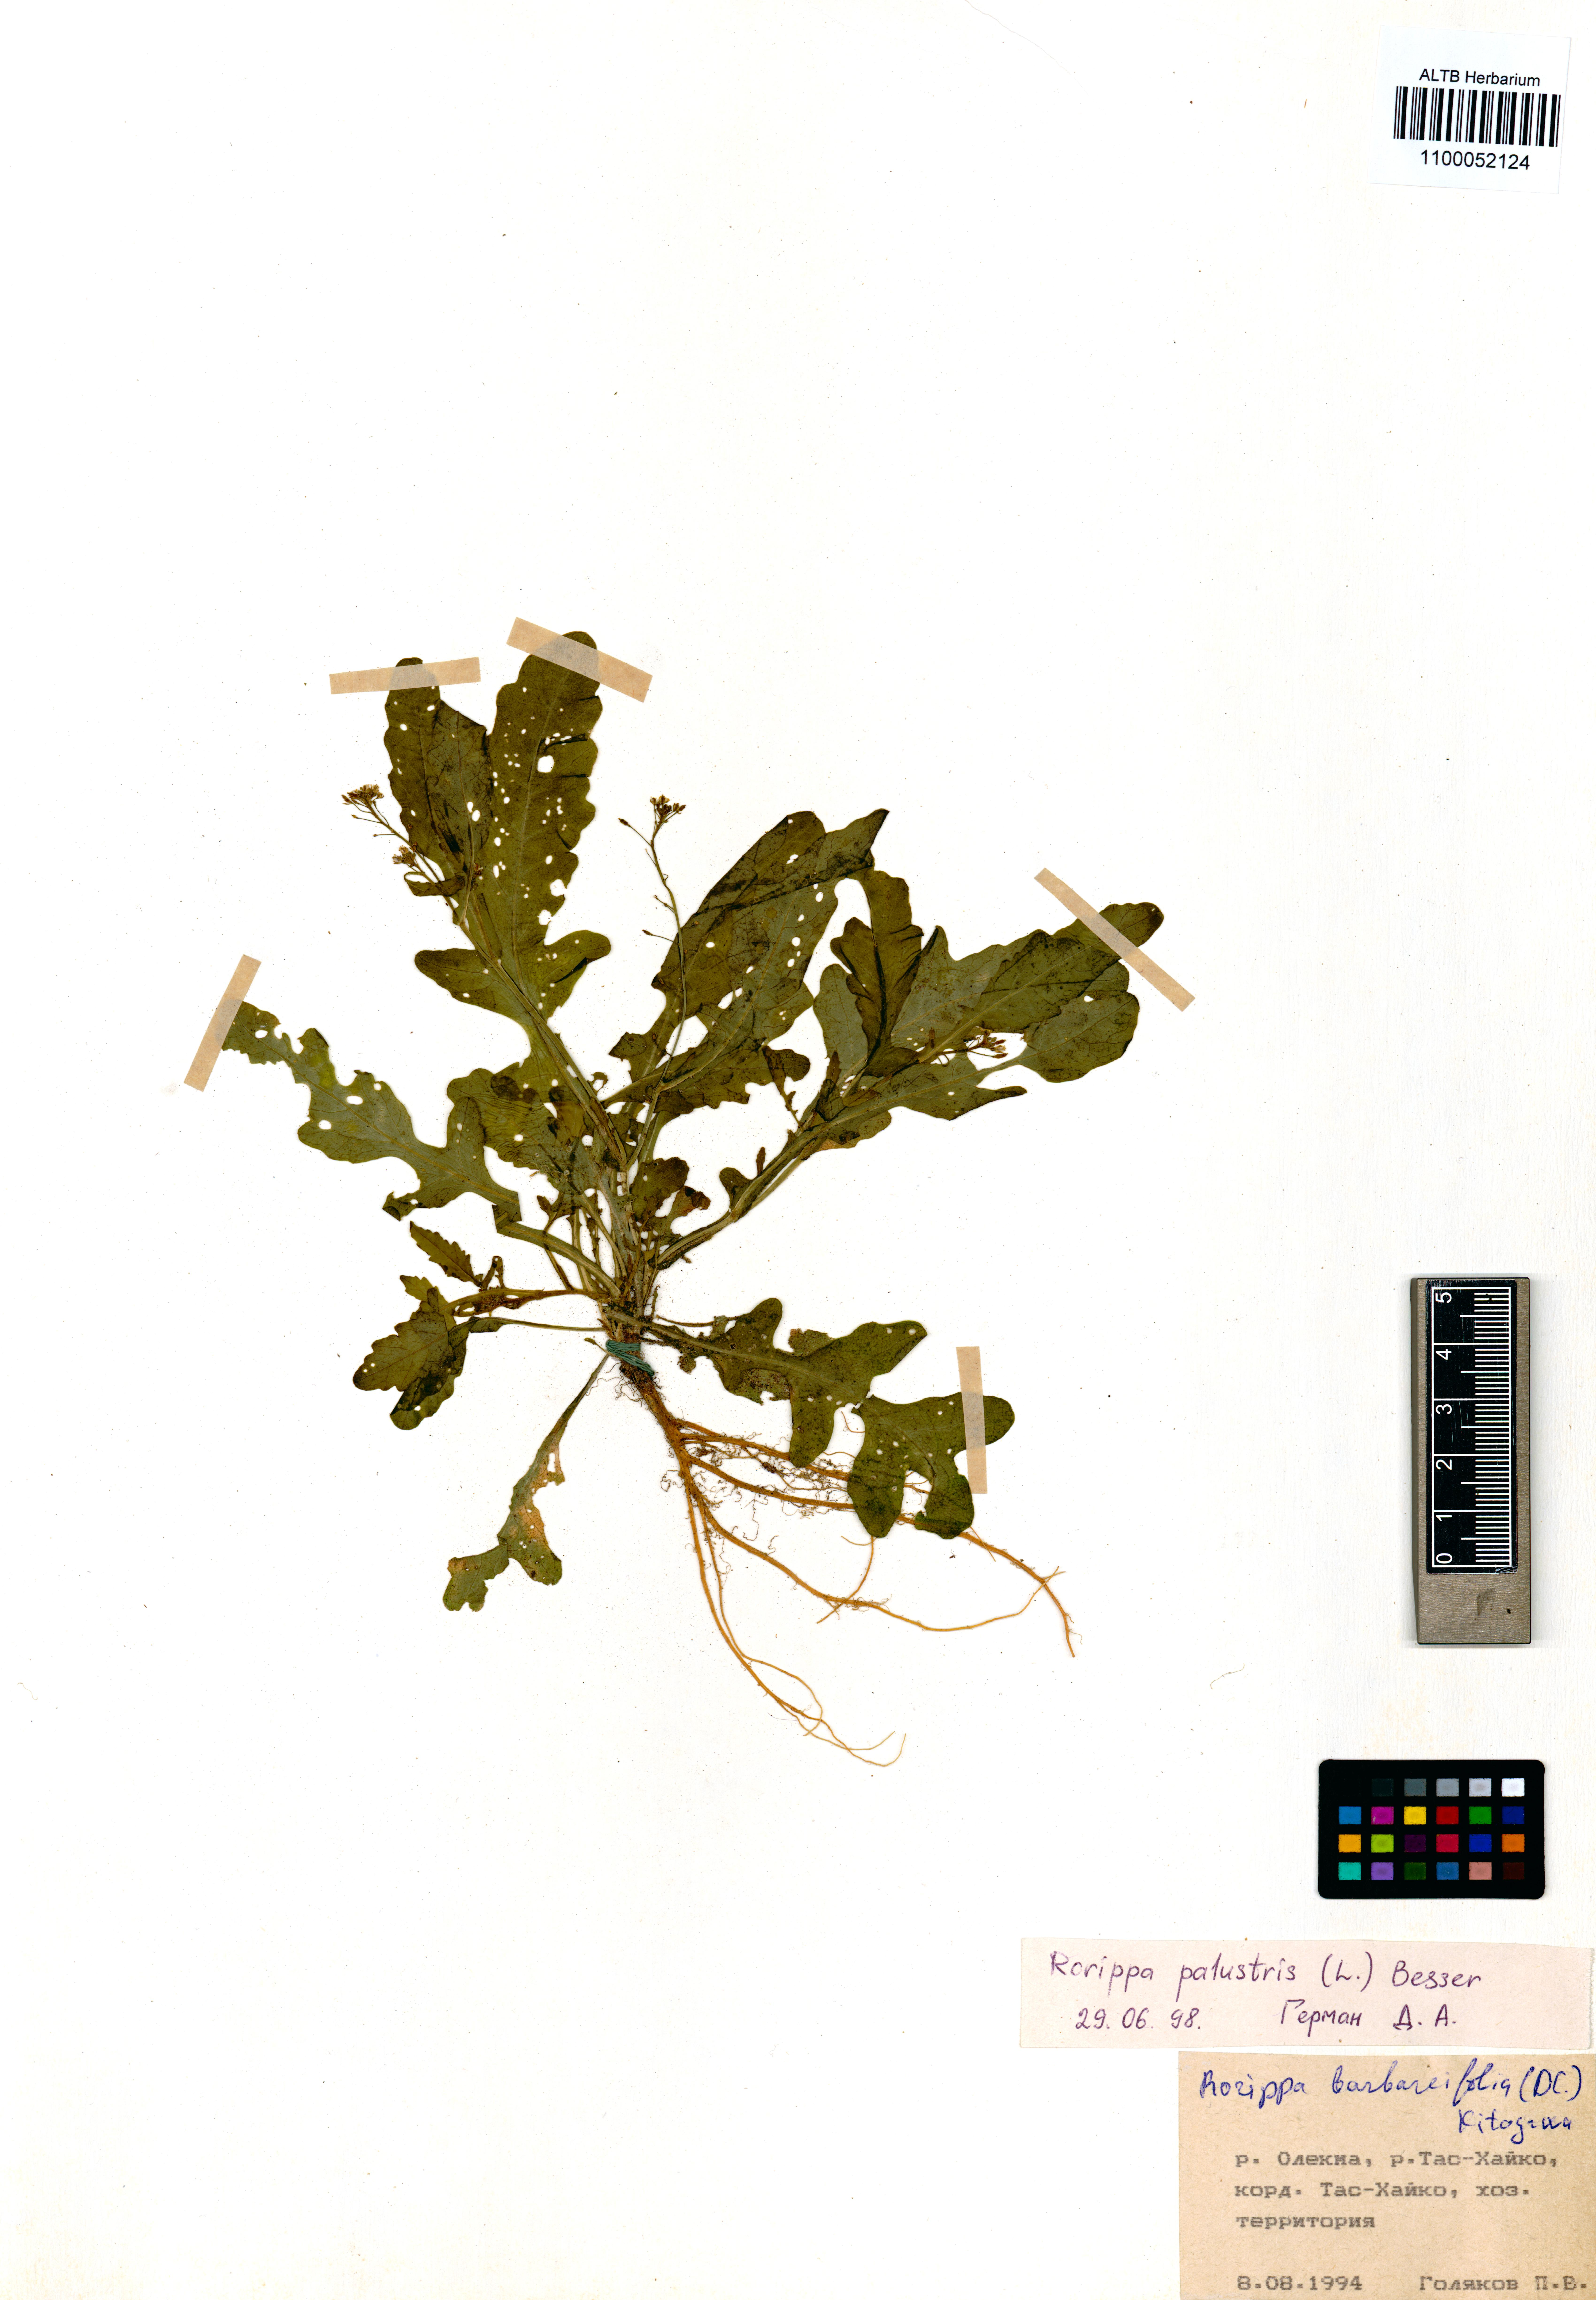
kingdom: Plantae
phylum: Tracheophyta
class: Magnoliopsida
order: Brassicales
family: Brassicaceae
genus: Rorippa
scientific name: Rorippa palustris
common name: Marsh yellow-cress
